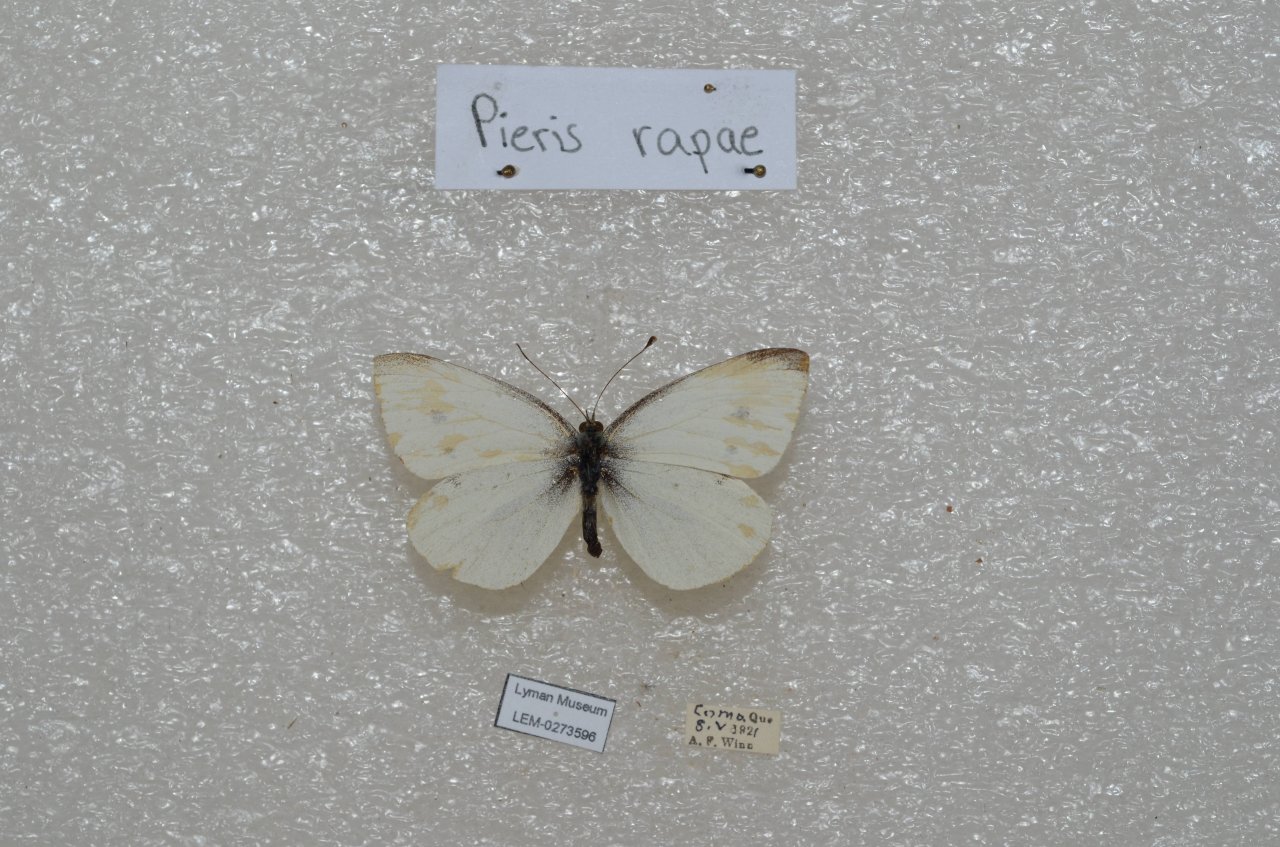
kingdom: Animalia
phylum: Arthropoda
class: Insecta
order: Lepidoptera
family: Pieridae
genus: Pieris
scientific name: Pieris rapae
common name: Cabbage White
